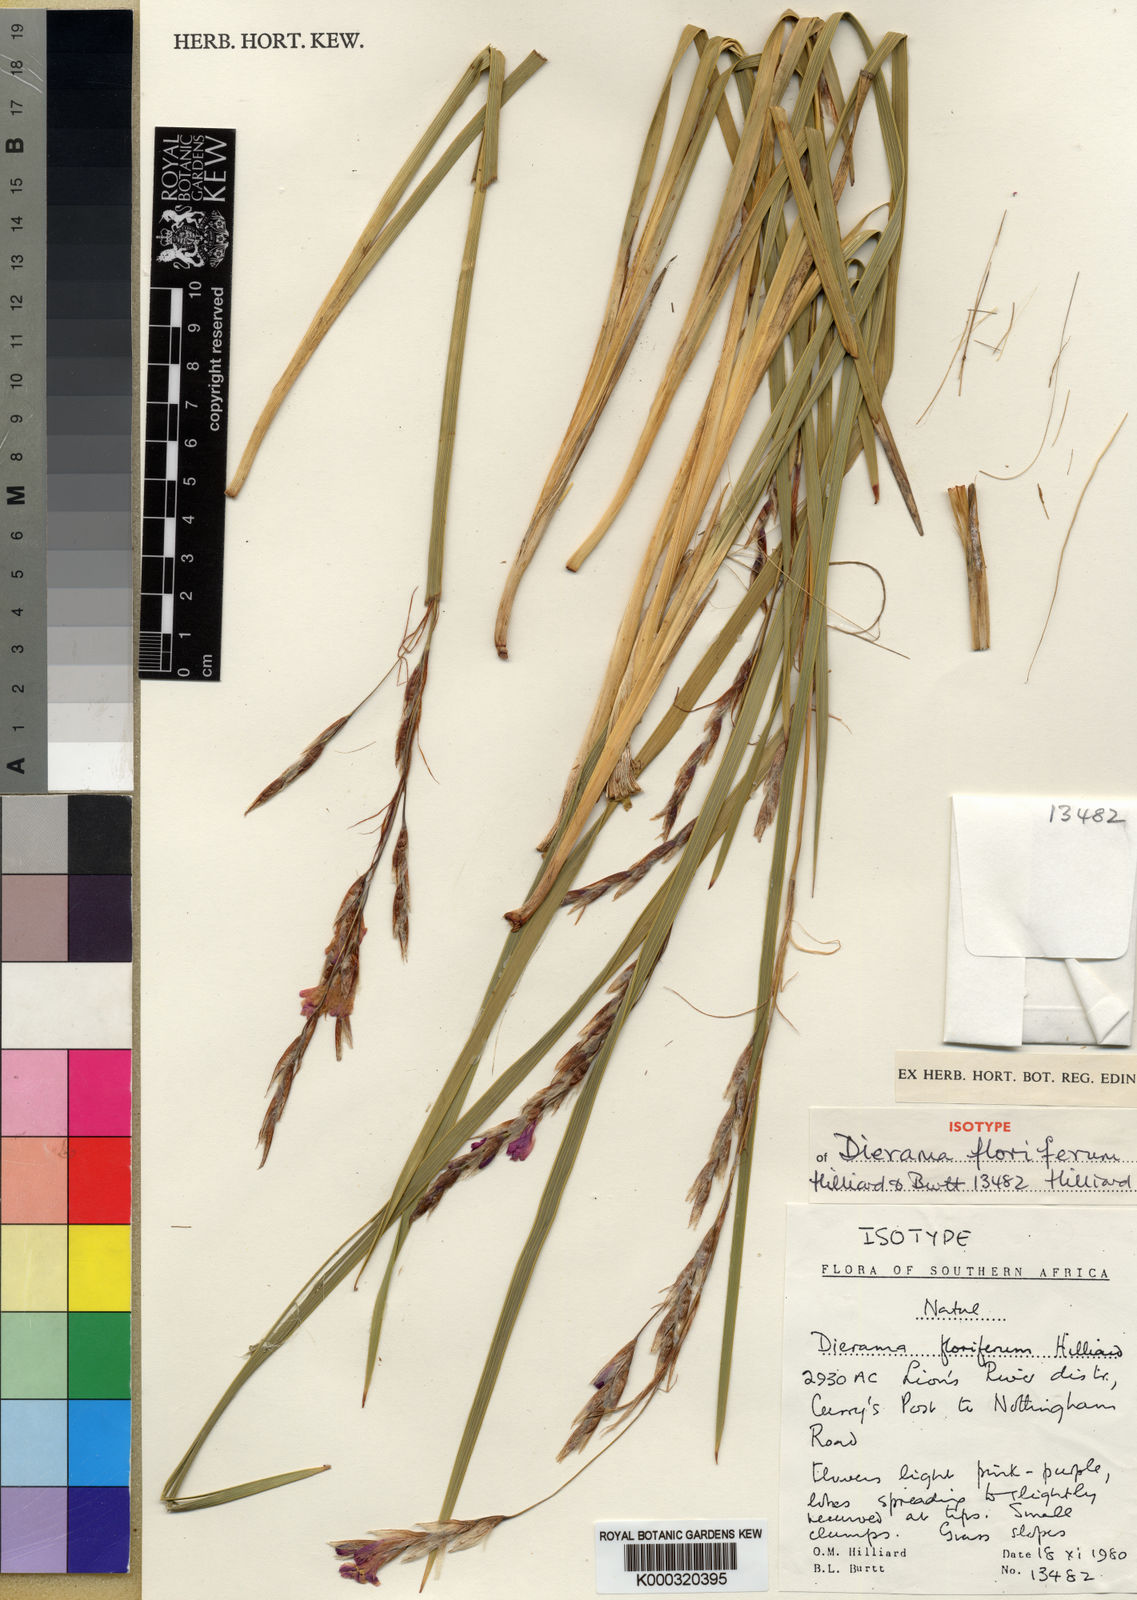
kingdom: Plantae
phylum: Tracheophyta
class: Liliopsida
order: Asparagales
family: Iridaceae
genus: Dierama
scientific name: Dierama floriferum
